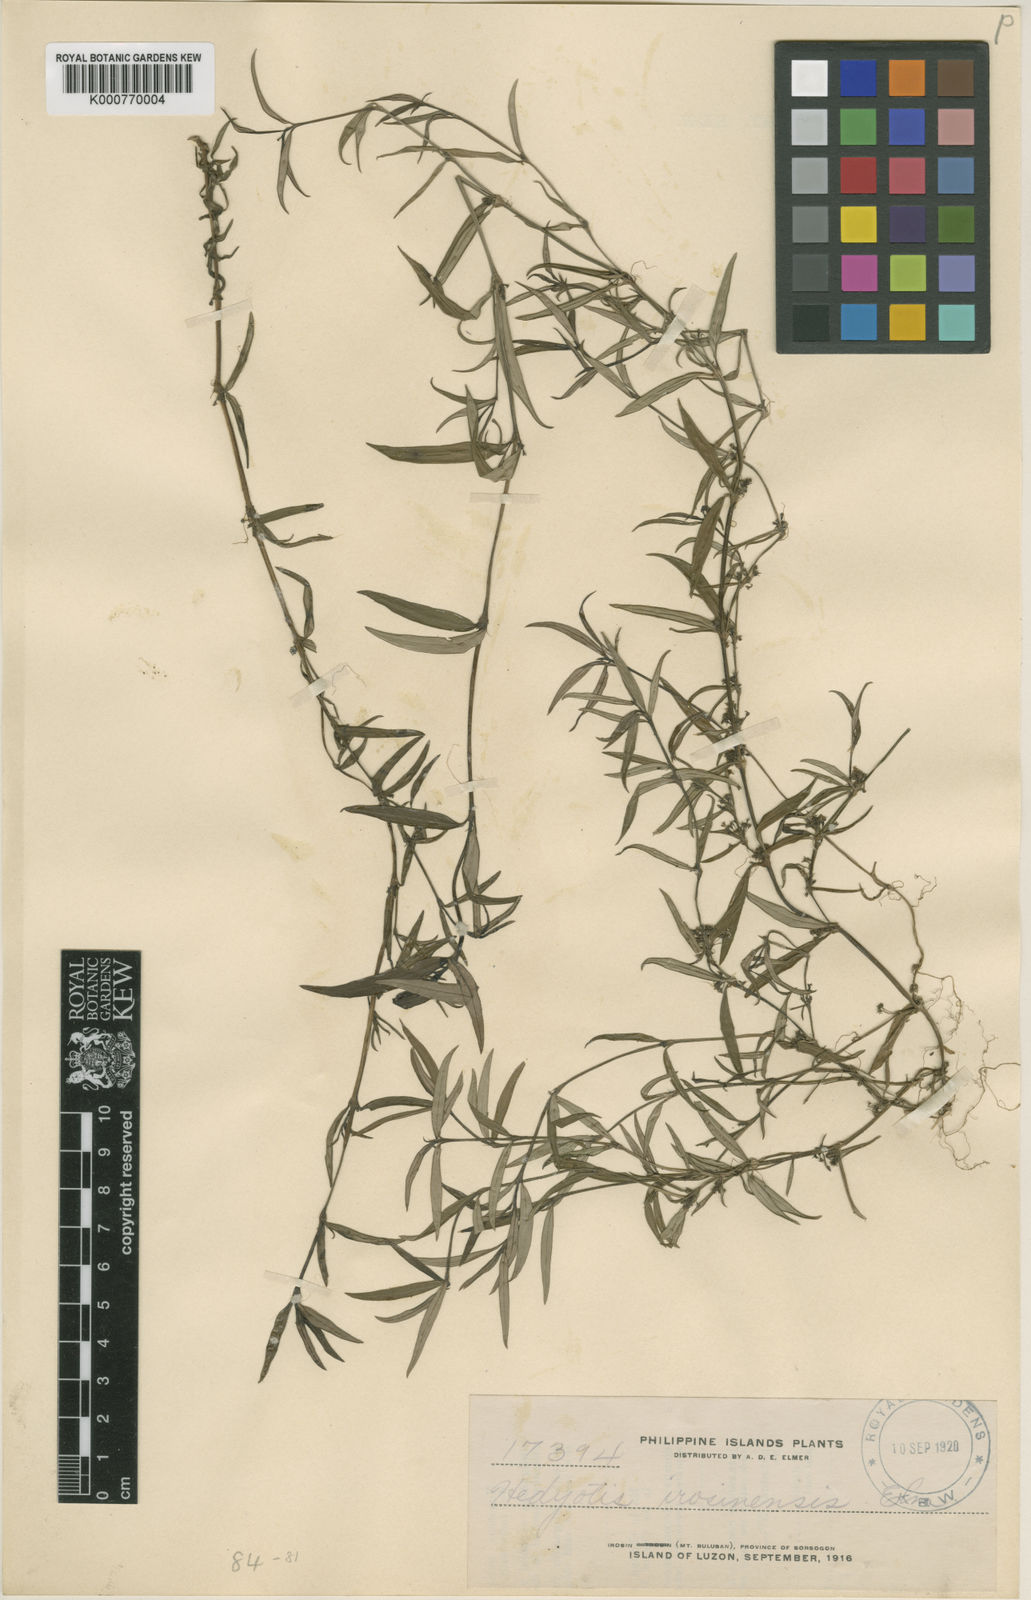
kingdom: Plantae
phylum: Tracheophyta
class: Magnoliopsida
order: Gentianales
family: Rubiaceae
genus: Exallage
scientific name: Exallage
